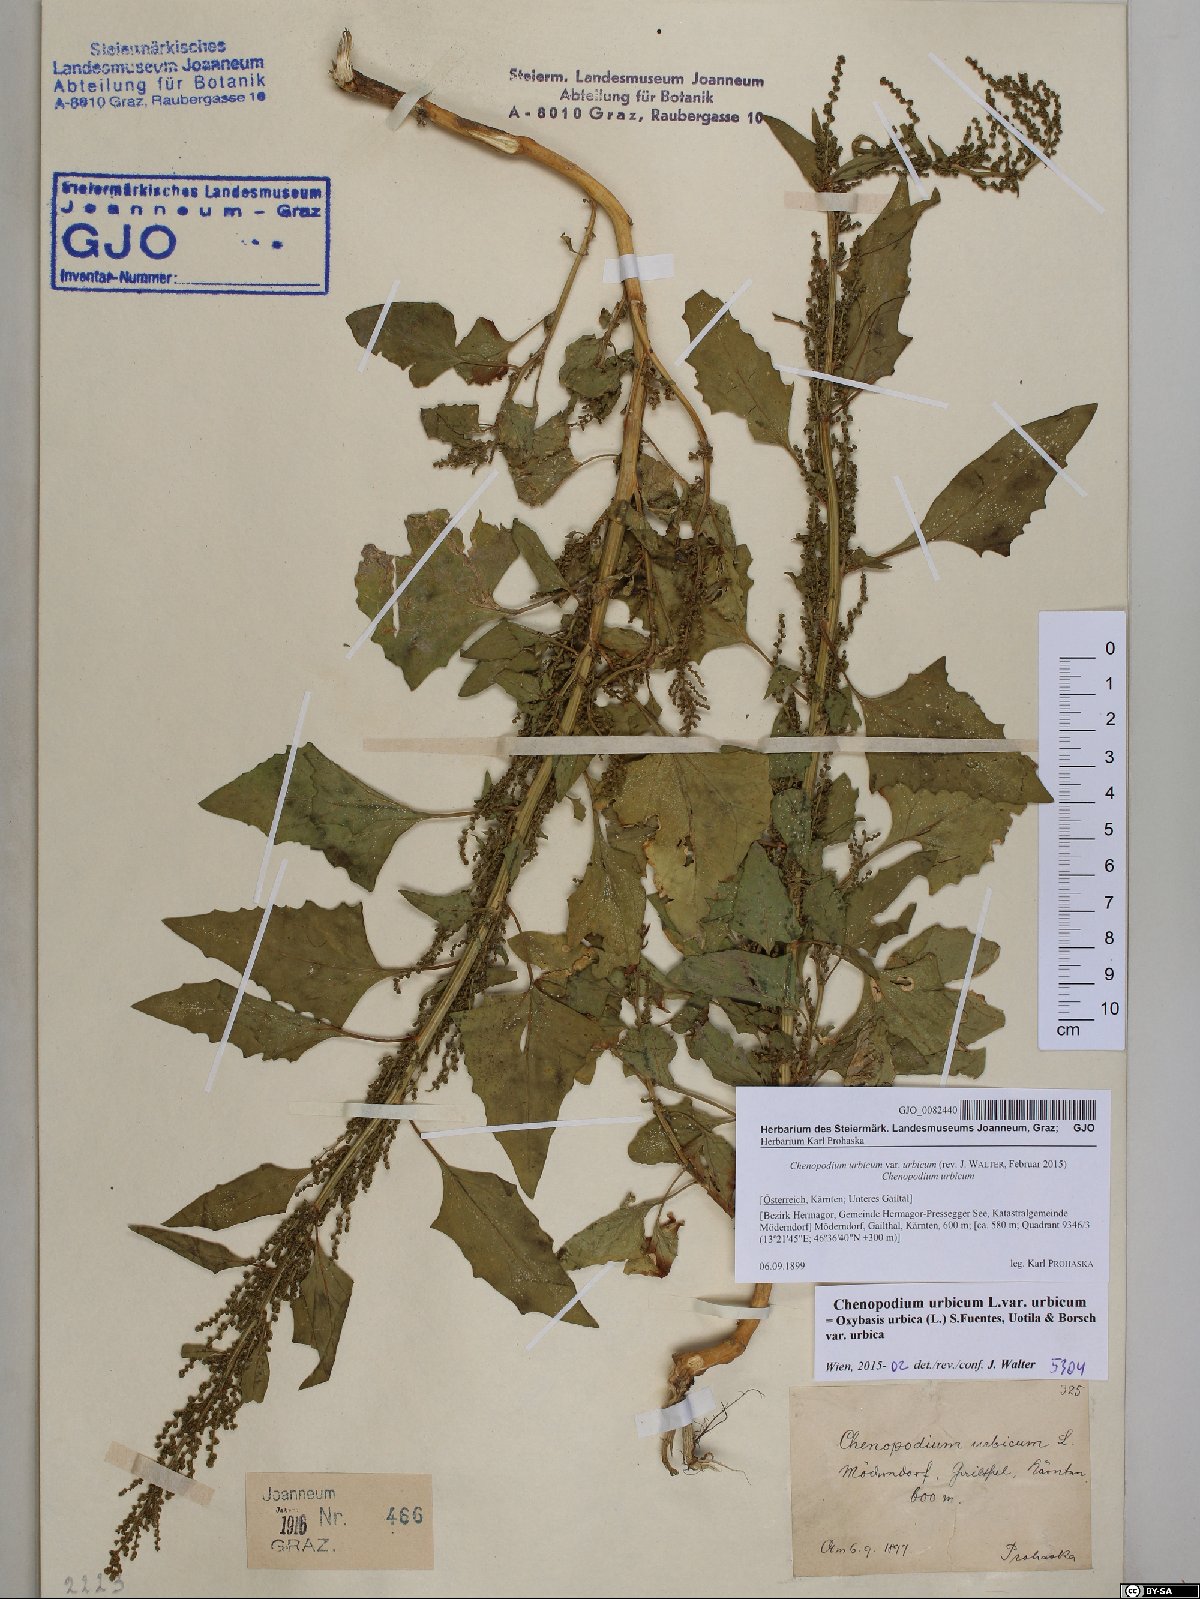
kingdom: Plantae
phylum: Tracheophyta
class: Magnoliopsida
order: Caryophyllales
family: Amaranthaceae
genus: Oxybasis
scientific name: Oxybasis urbica
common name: City goosefoot
